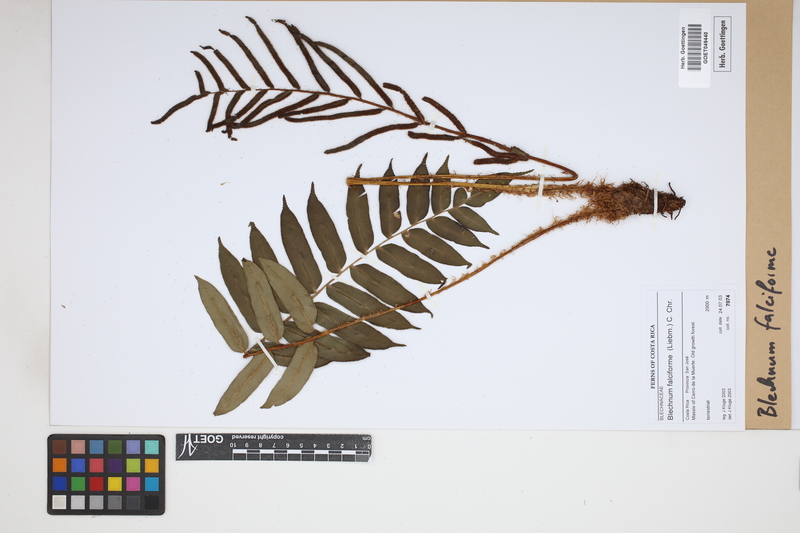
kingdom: Plantae
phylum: Tracheophyta
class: Polypodiopsida
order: Polypodiales
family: Blechnaceae
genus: Parablechnum
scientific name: Parablechnum falciforme
